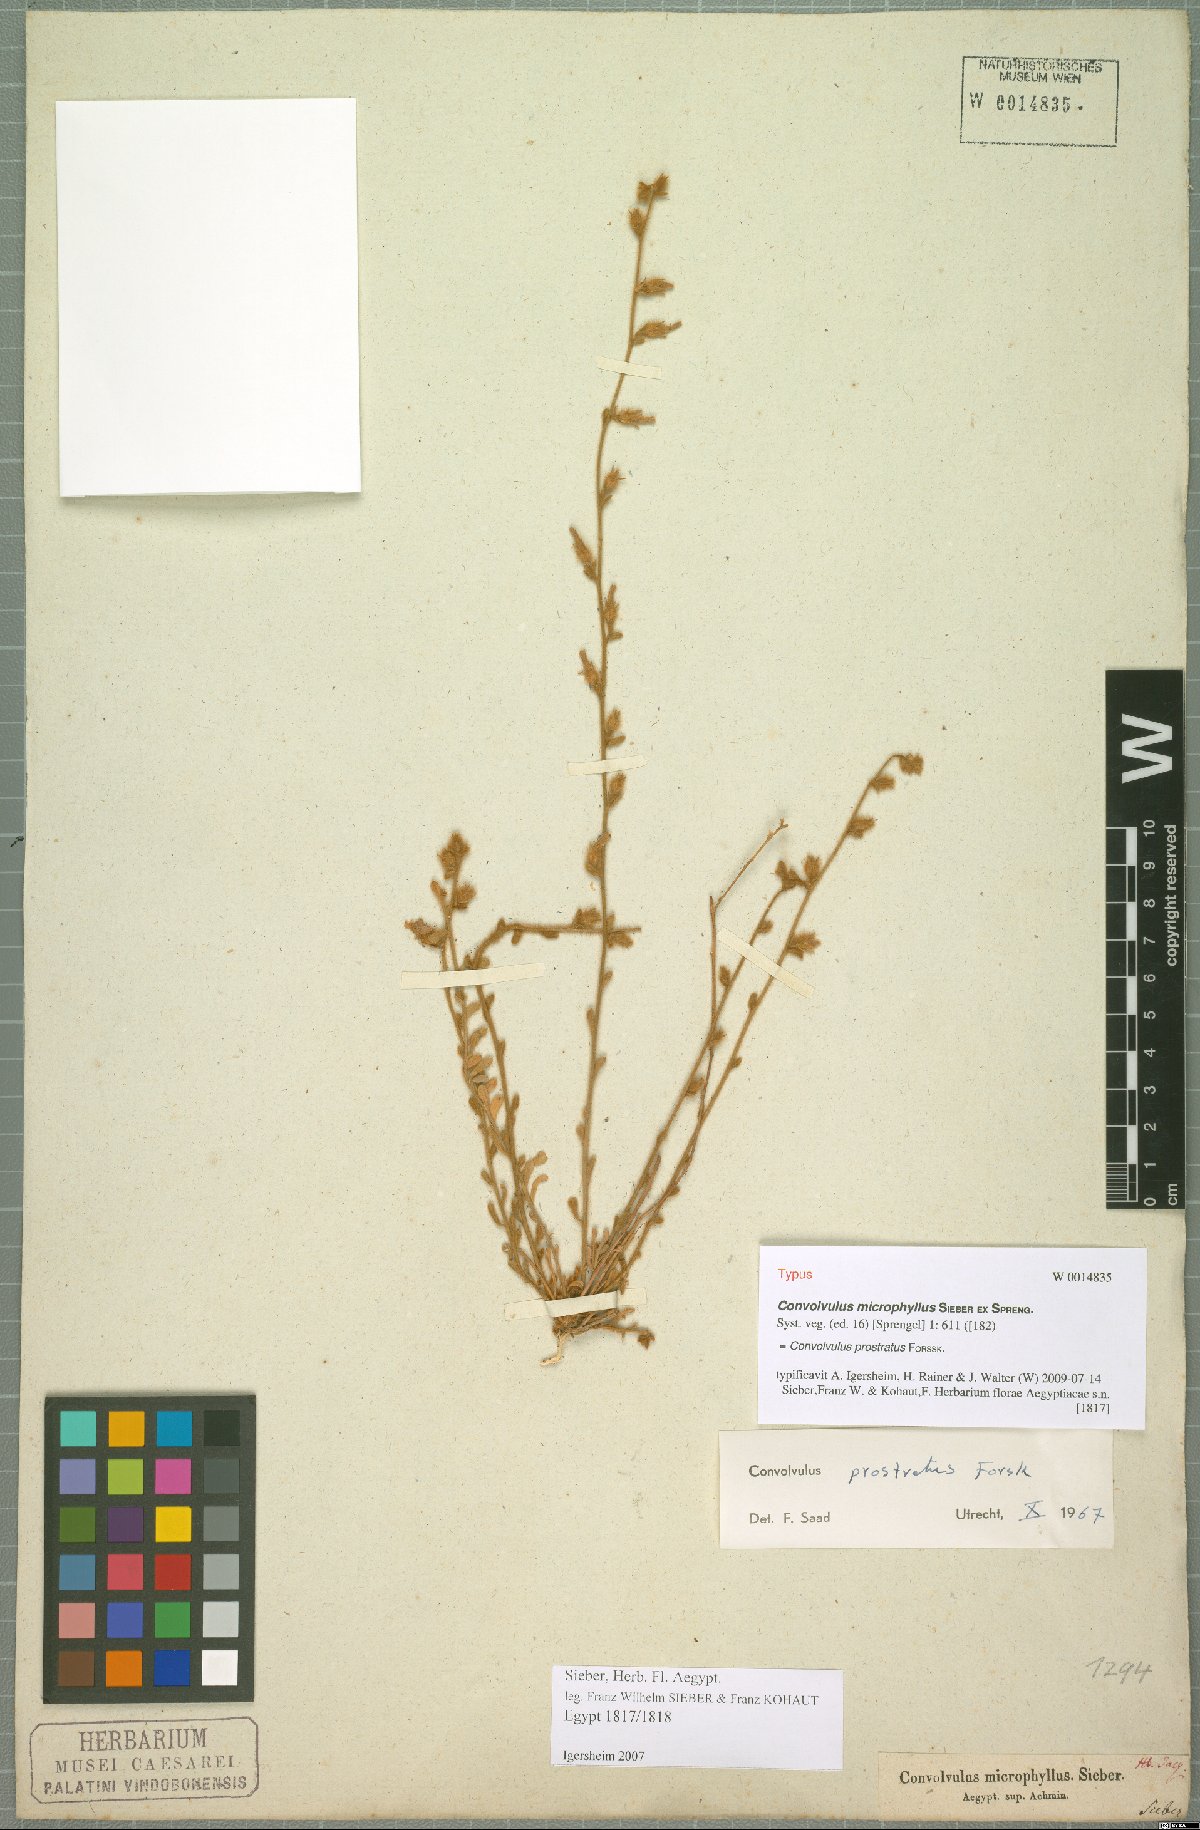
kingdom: Plantae
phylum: Tracheophyta
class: Magnoliopsida
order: Solanales
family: Convolvulaceae
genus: Convolvulus
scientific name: Convolvulus prostratus
